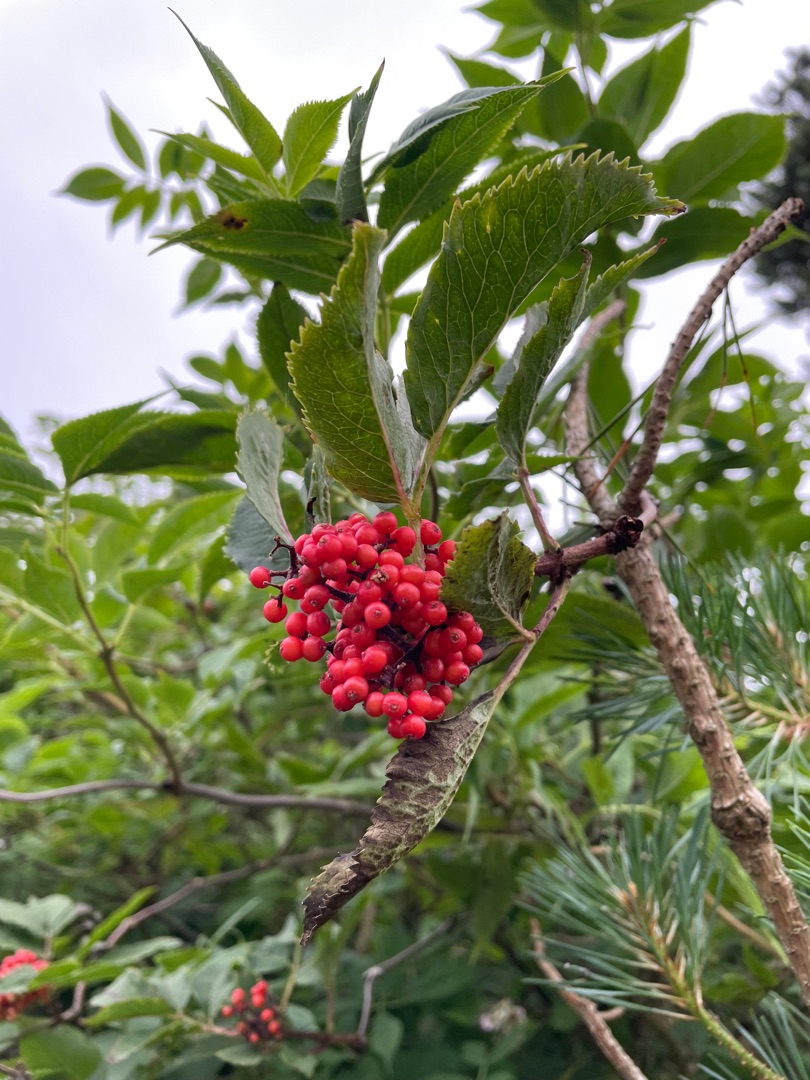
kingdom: Plantae
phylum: Tracheophyta
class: Magnoliopsida
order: Dipsacales
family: Viburnaceae
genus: Sambucus
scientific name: Sambucus racemosa
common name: Drue-hyld
